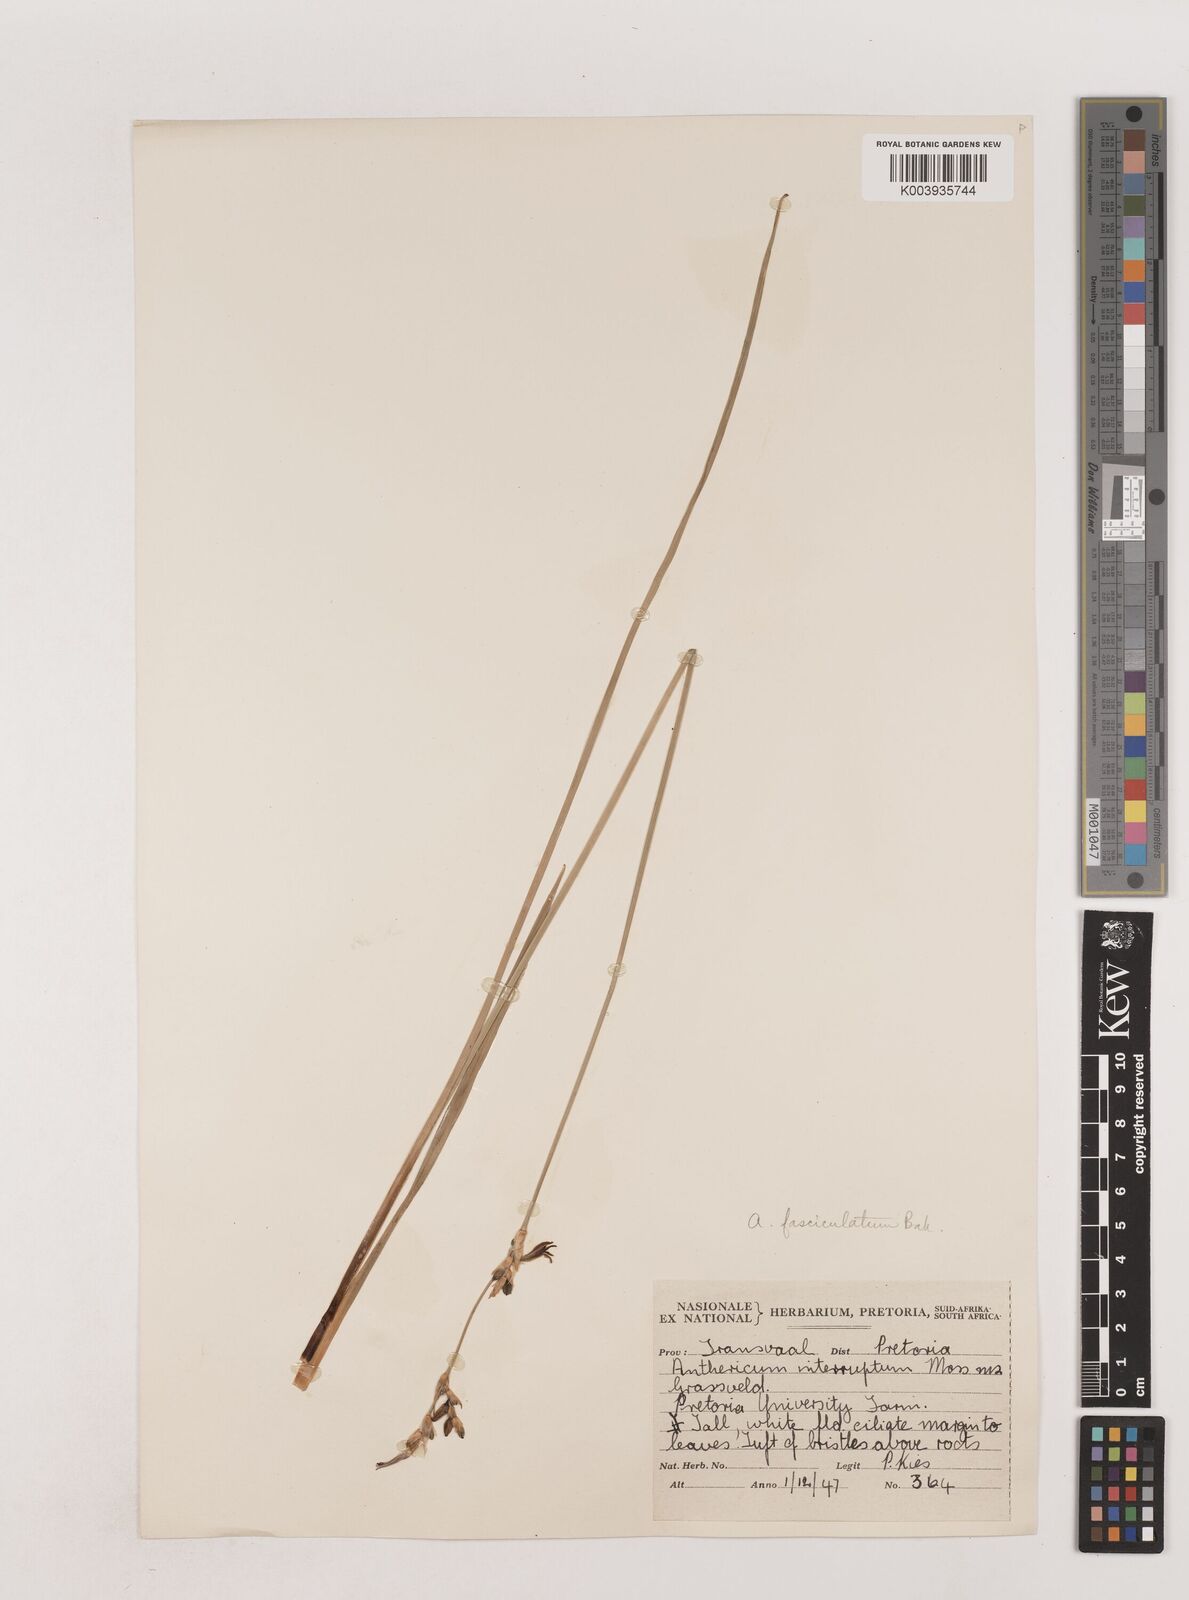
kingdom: Plantae
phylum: Tracheophyta
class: Liliopsida
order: Asparagales
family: Asparagaceae
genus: Chlorophytum
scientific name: Chlorophytum fasciculatum
